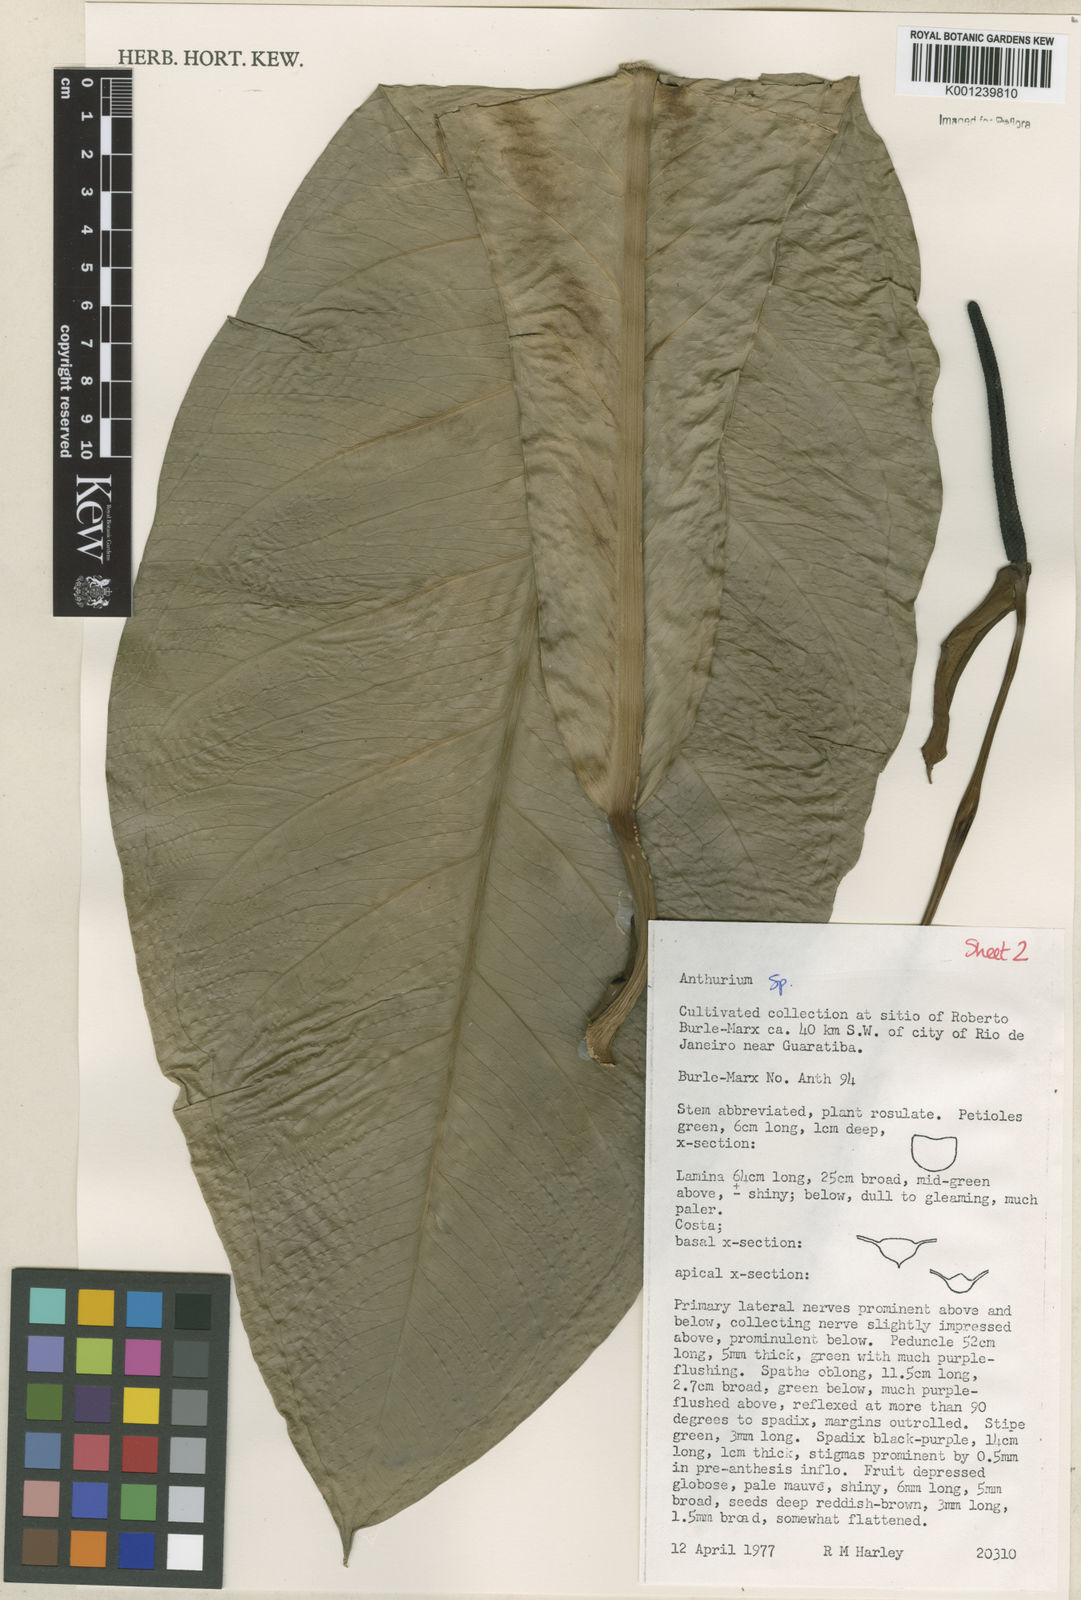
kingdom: Plantae
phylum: Tracheophyta
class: Liliopsida
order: Alismatales
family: Araceae
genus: Anthurium
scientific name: Anthurium
